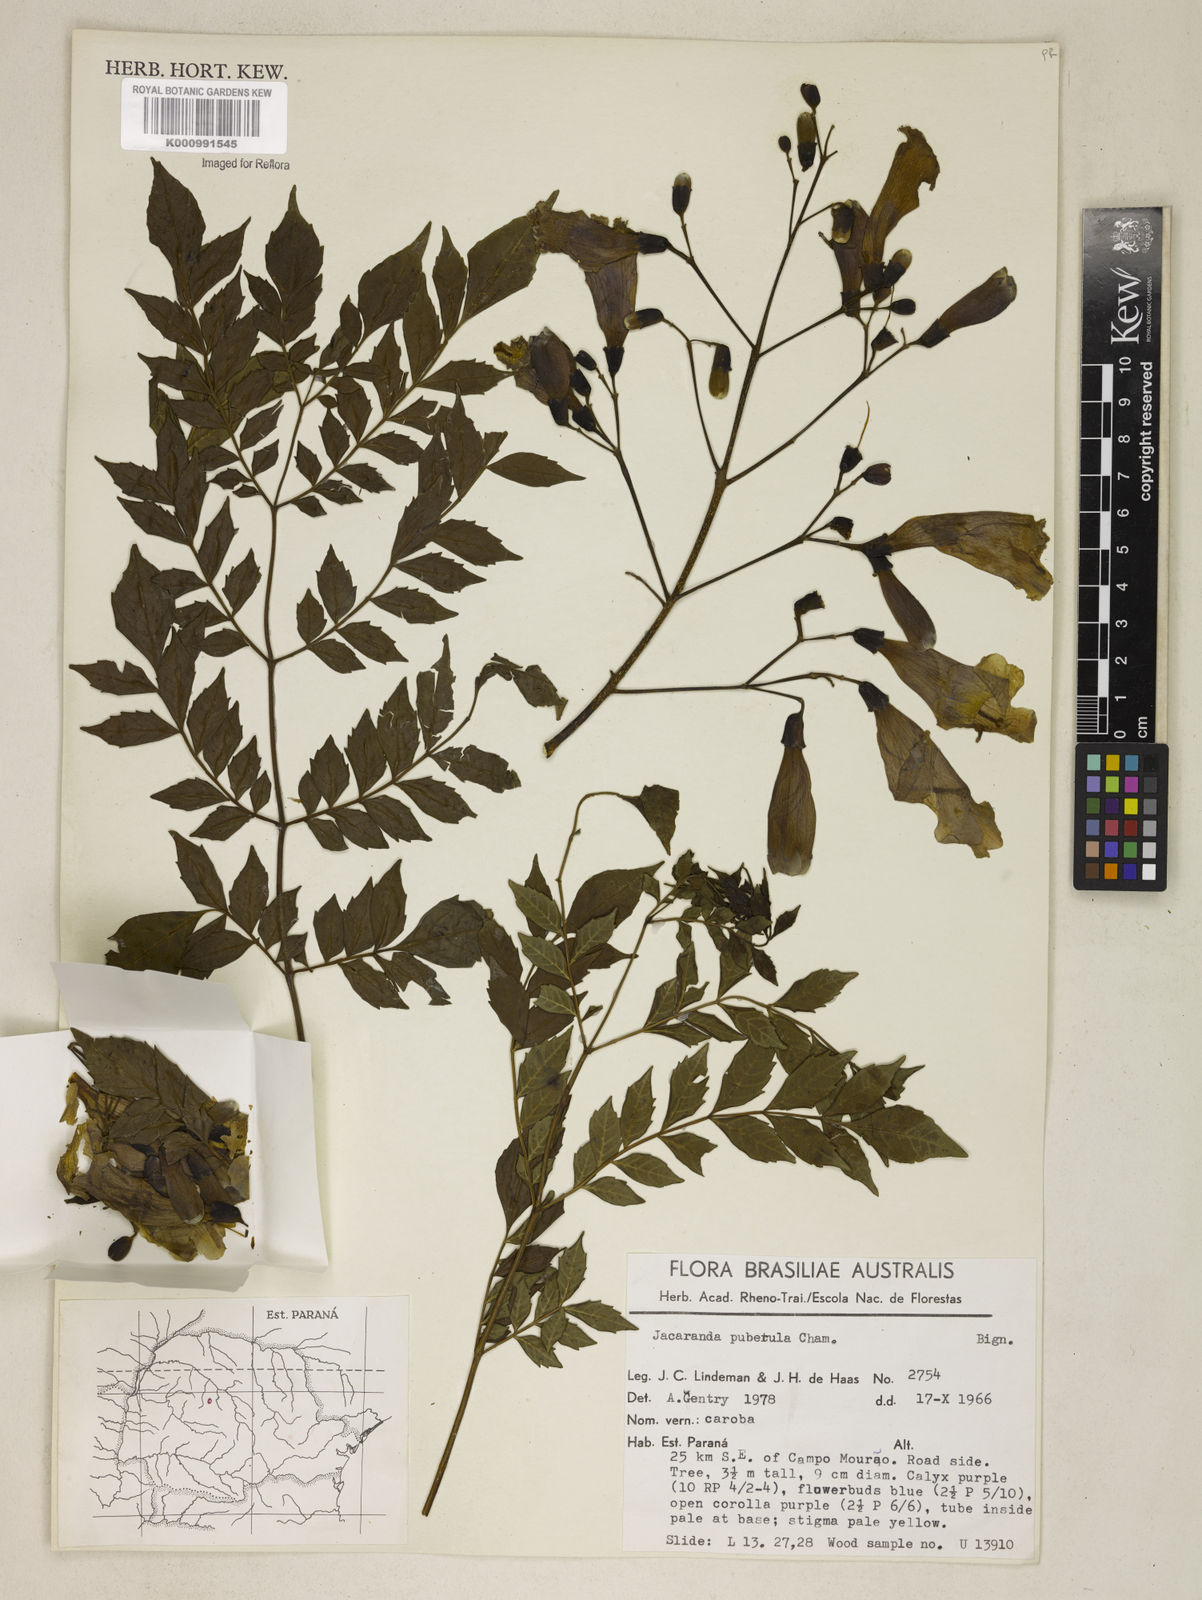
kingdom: Plantae
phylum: Tracheophyta
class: Magnoliopsida
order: Lamiales
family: Bignoniaceae
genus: Jacaranda
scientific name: Jacaranda puberula
